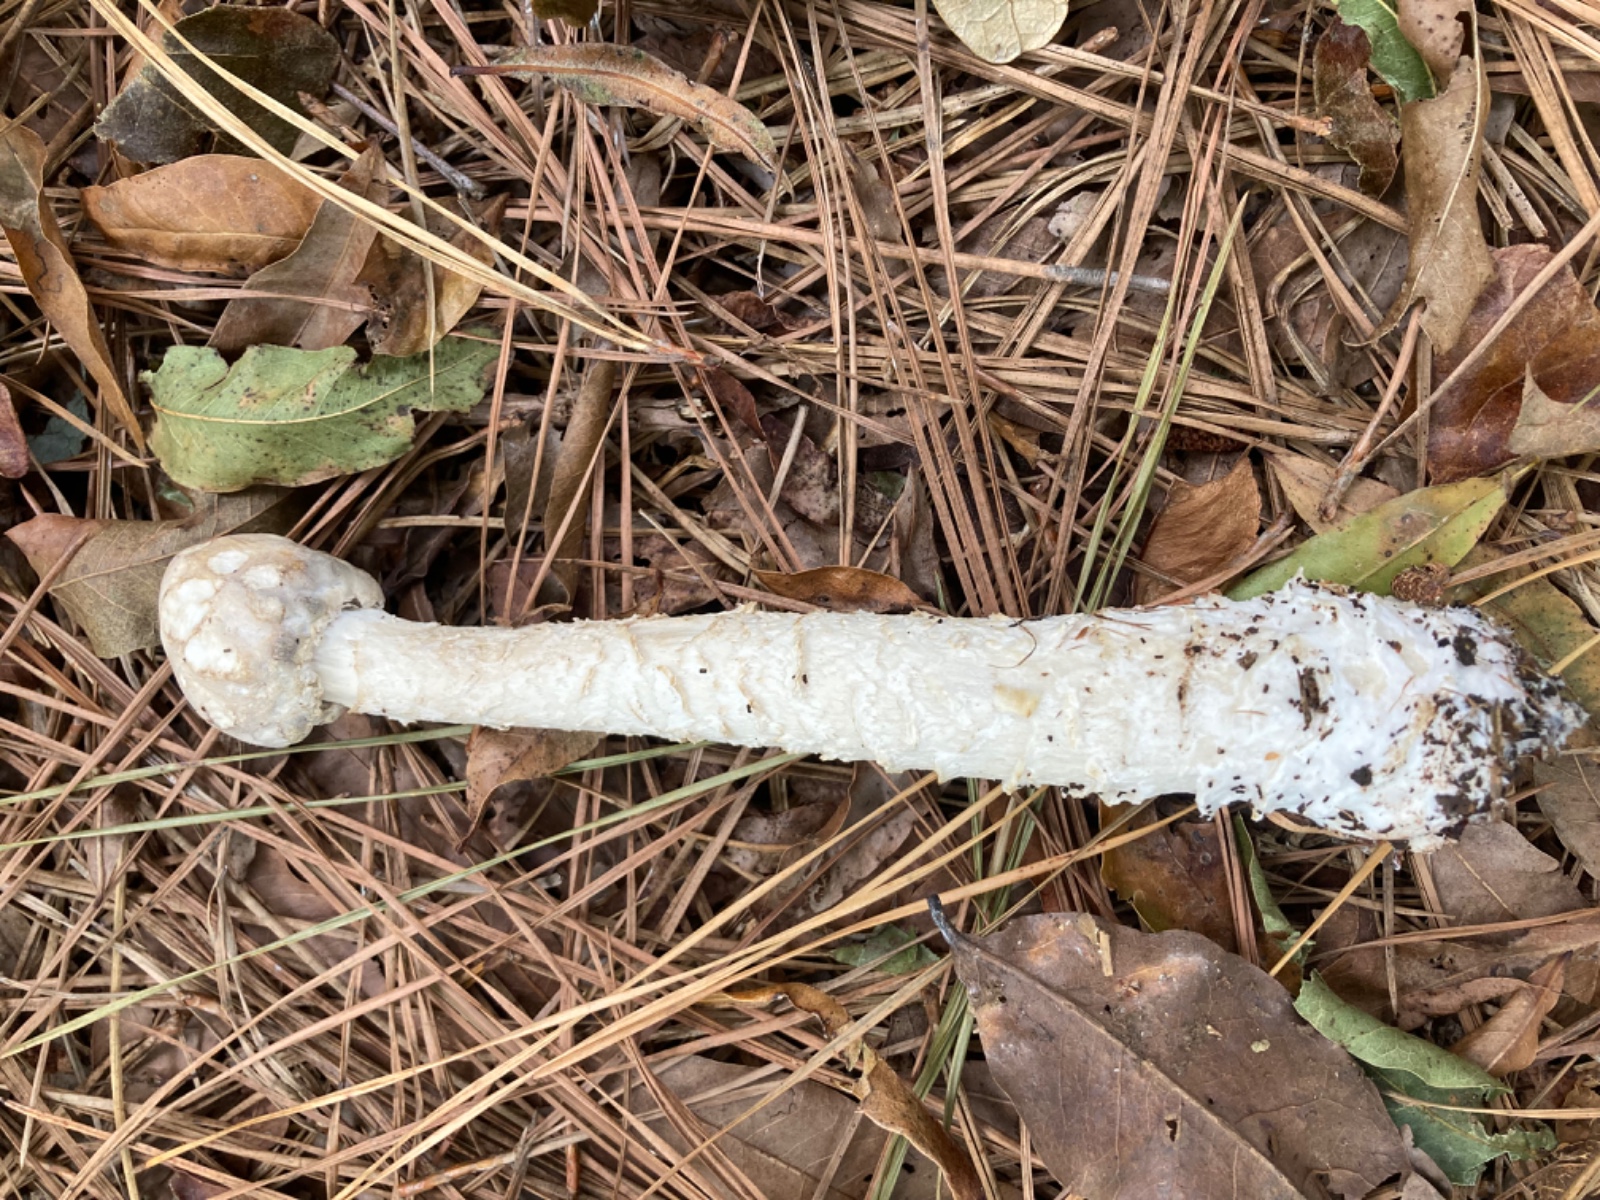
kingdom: Fungi
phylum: Basidiomycota
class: Agaricomycetes
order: Agaricales
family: Amanitaceae
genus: Amanita
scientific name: Amanita
